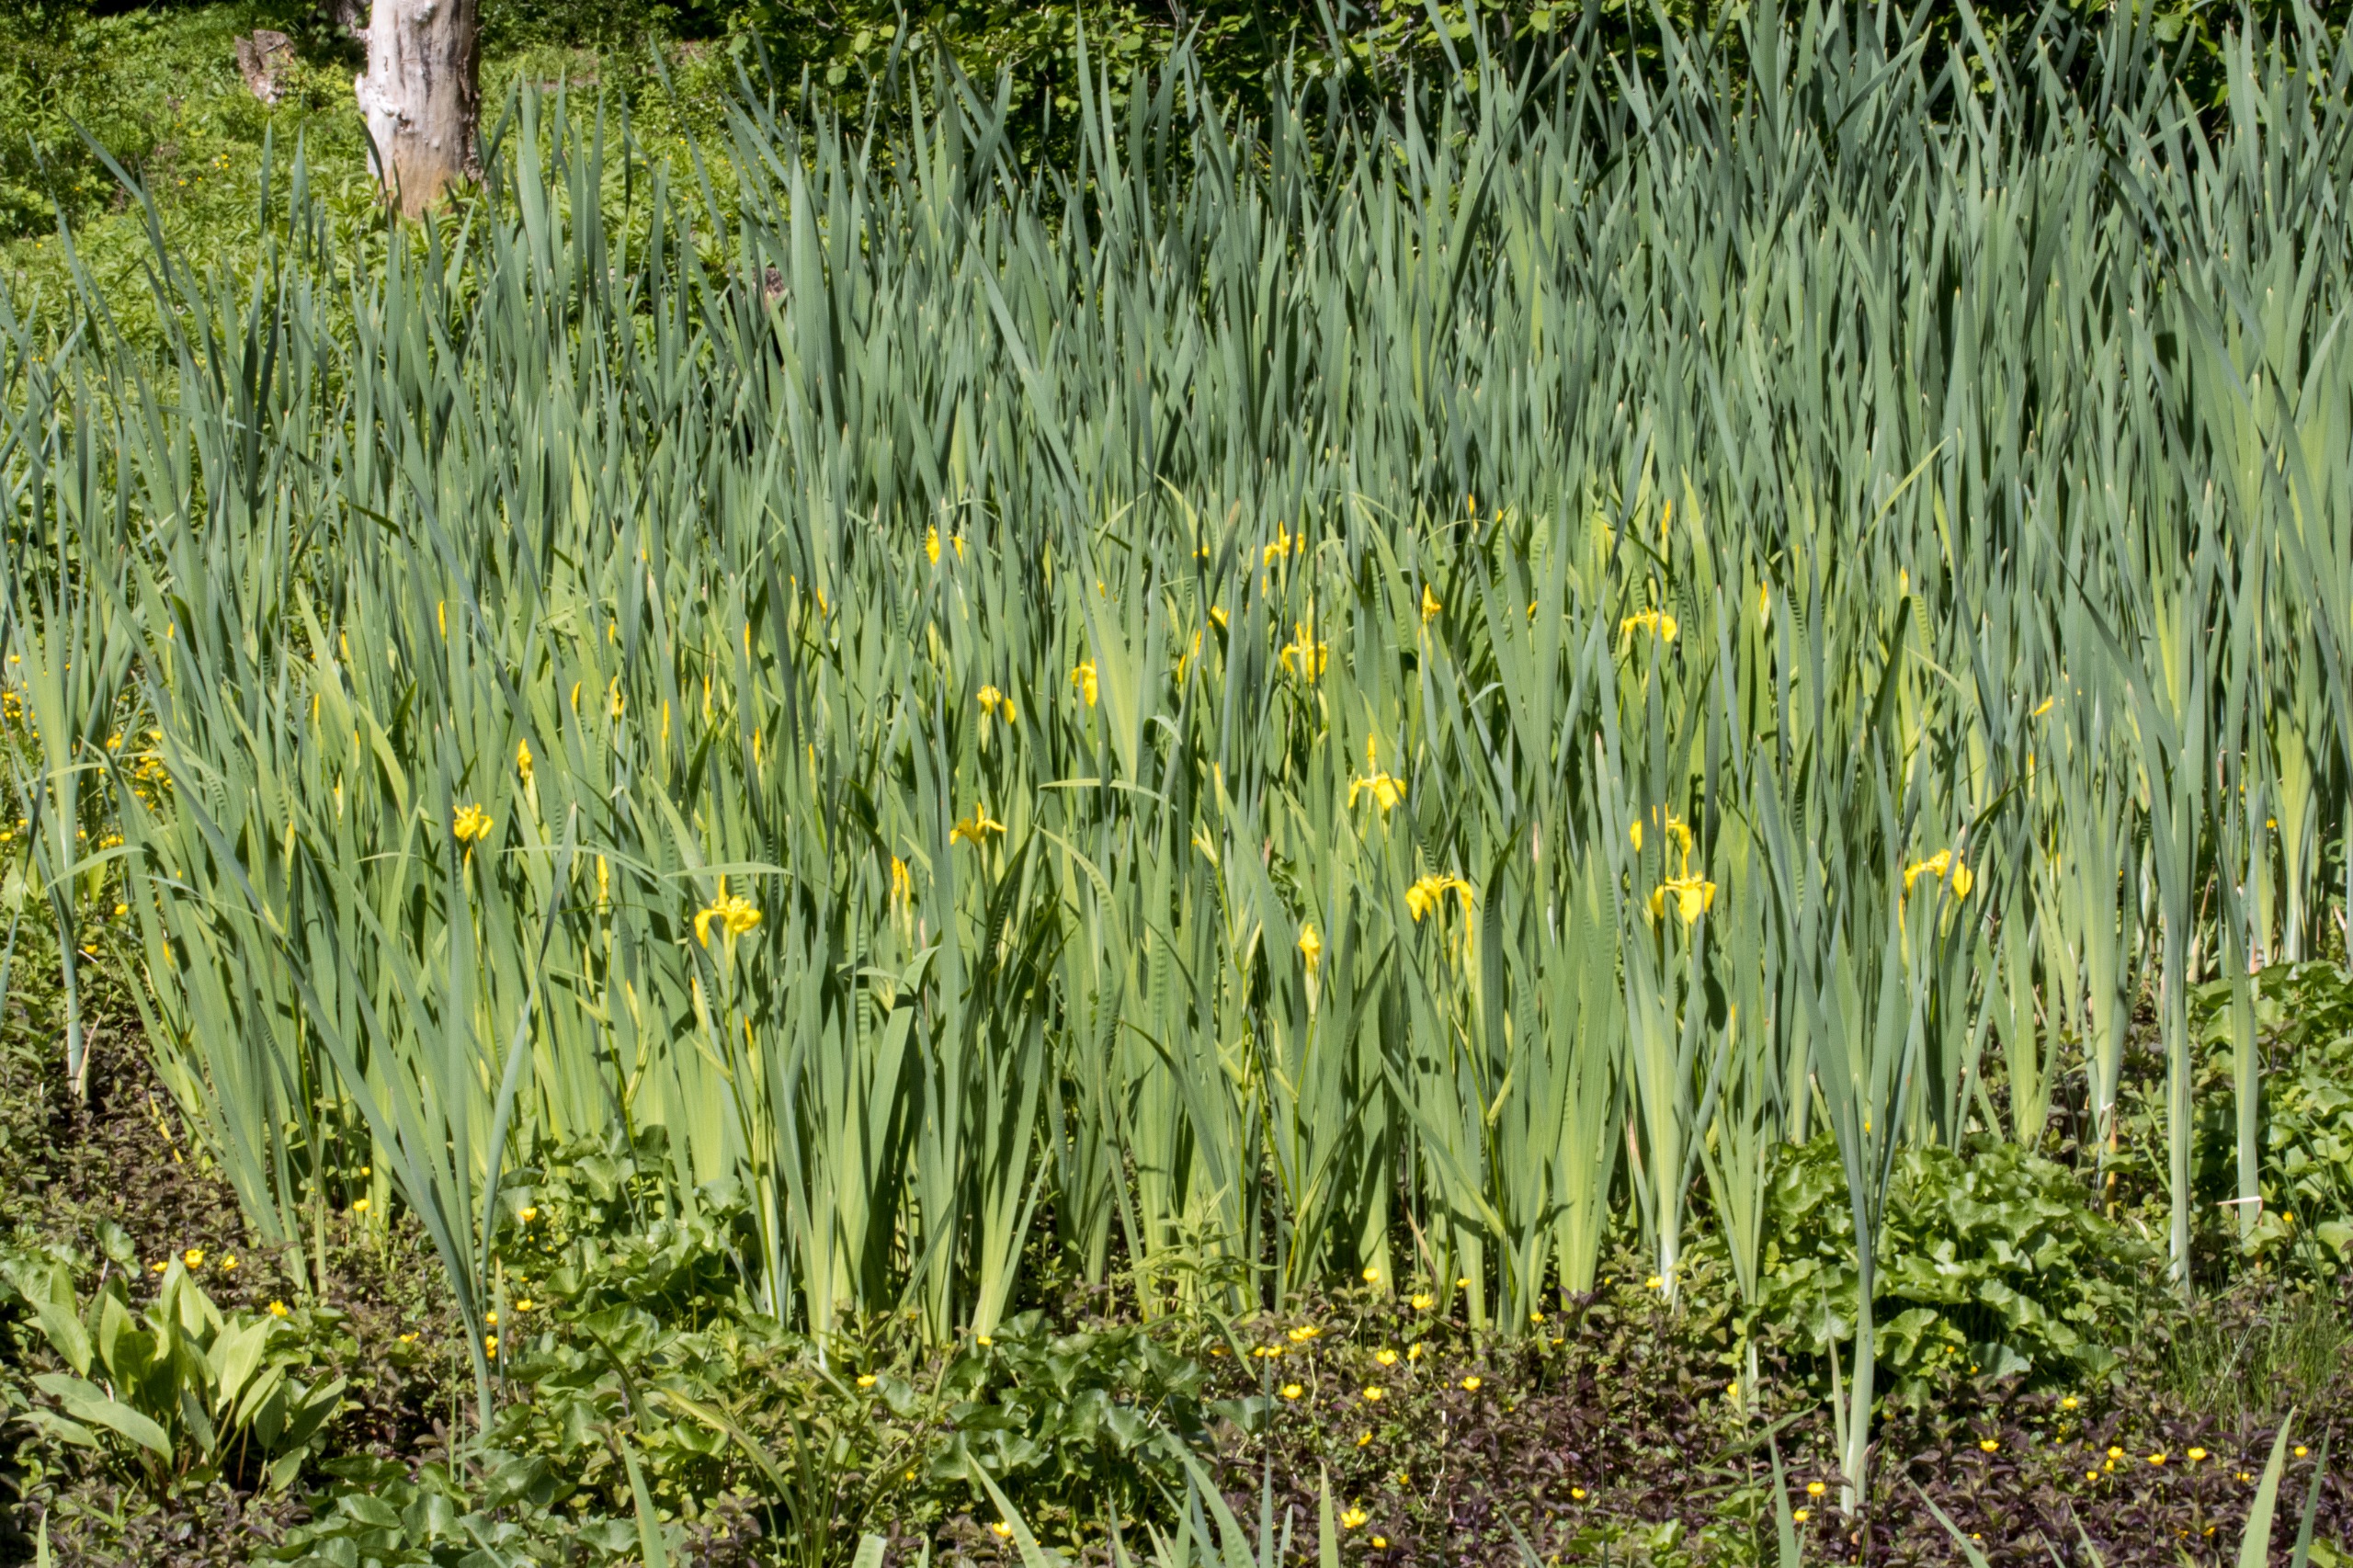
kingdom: Plantae
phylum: Tracheophyta
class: Liliopsida
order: Asparagales
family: Iridaceae
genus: Iris
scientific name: Iris pseudacorus
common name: Gul iris
